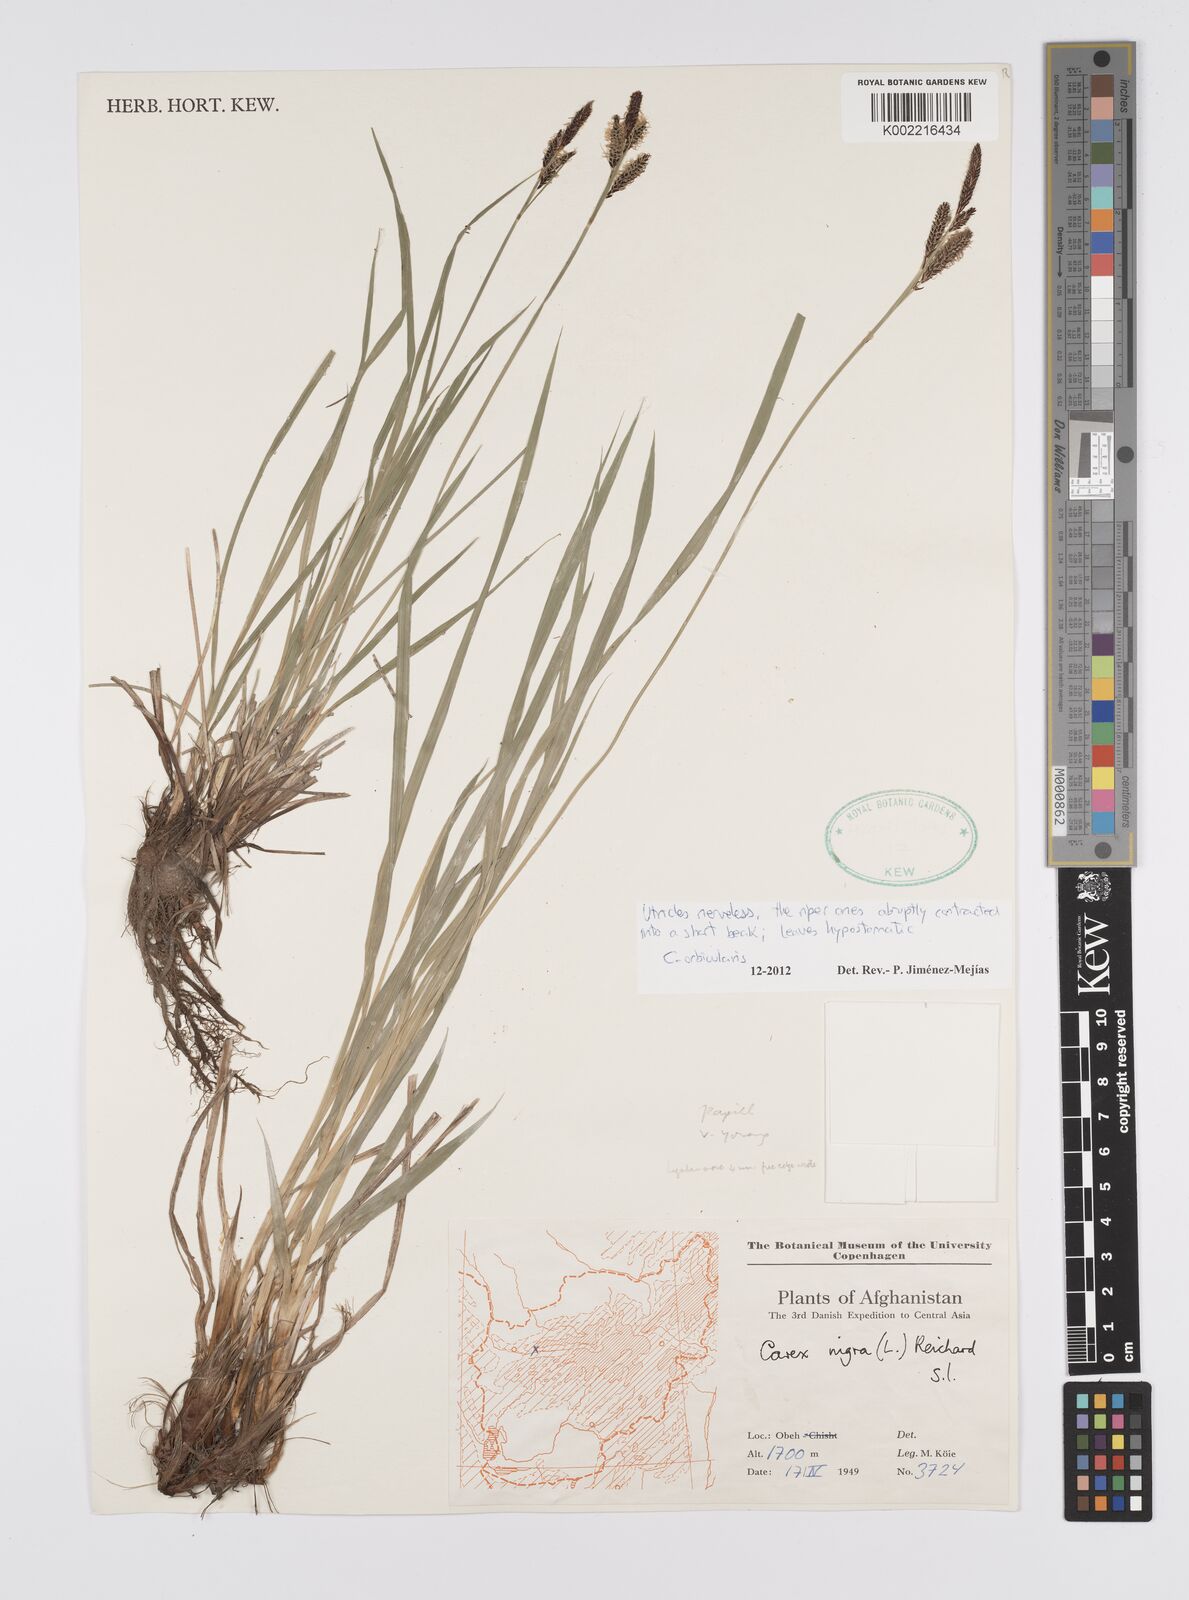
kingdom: Plantae
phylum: Tracheophyta
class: Liliopsida
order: Poales
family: Cyperaceae
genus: Carex
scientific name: Carex orbicularis
